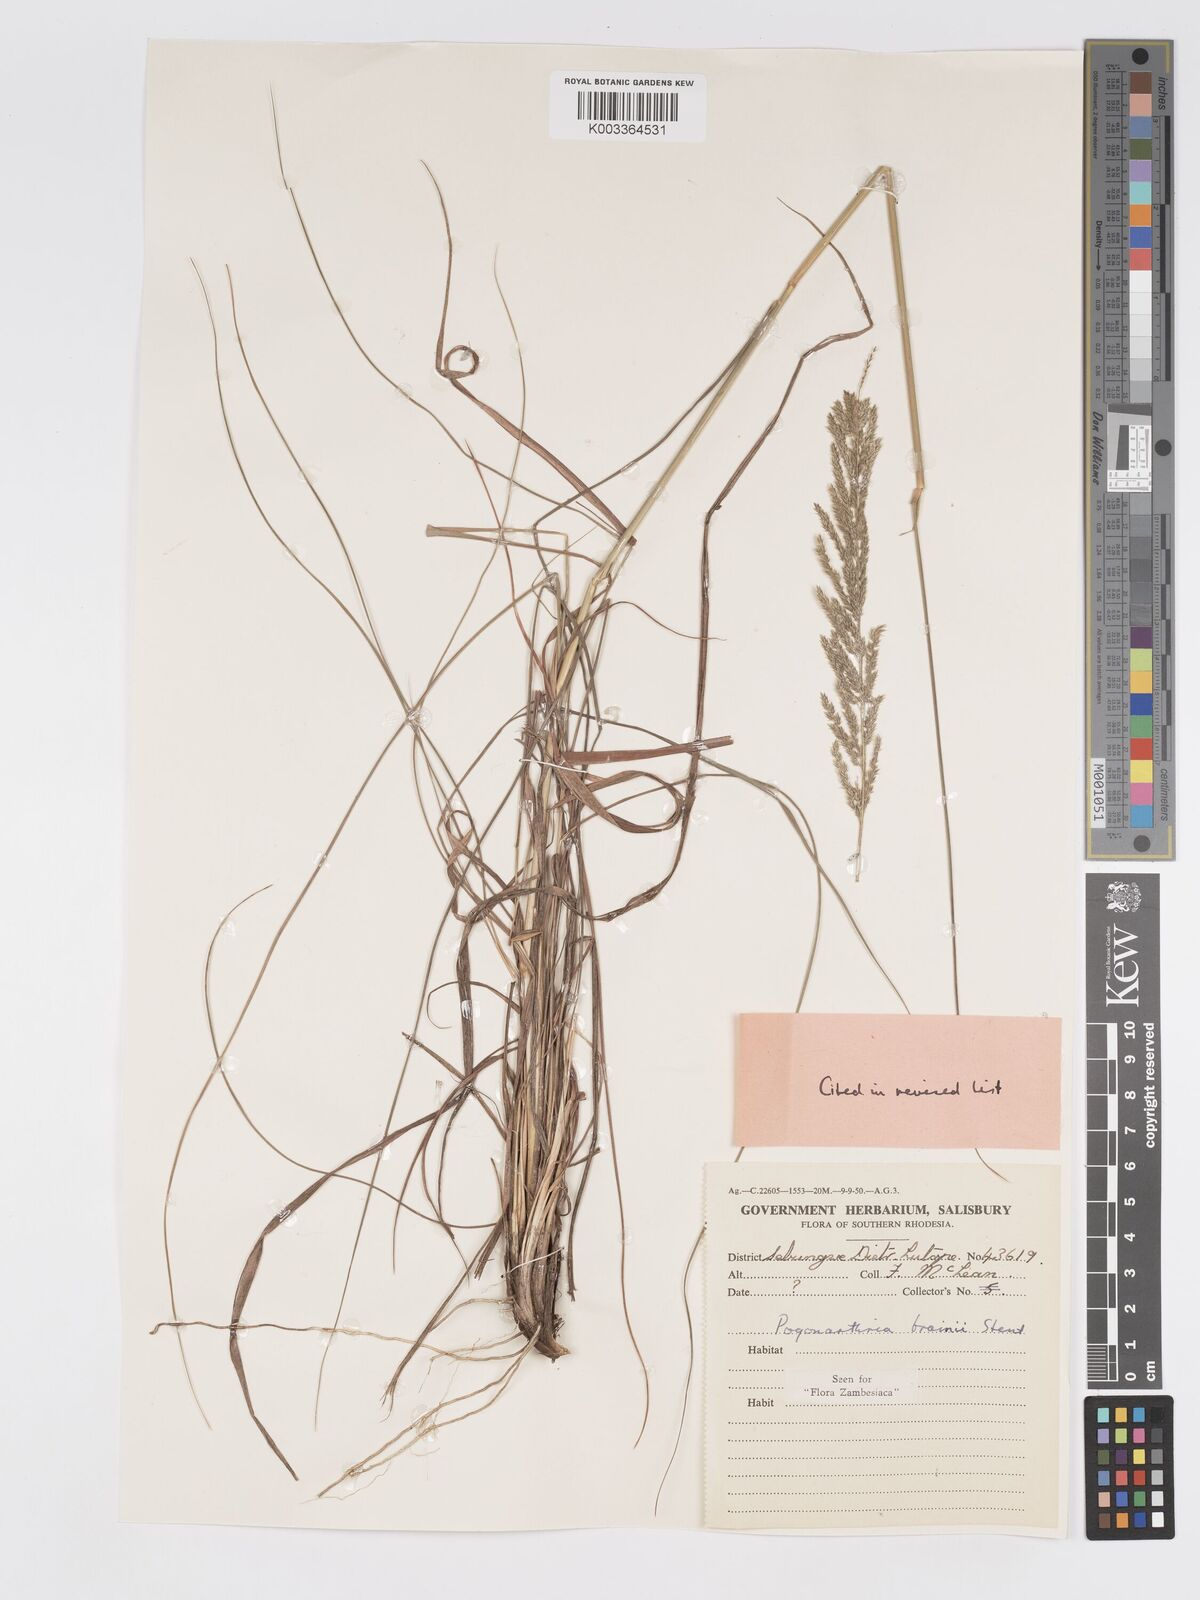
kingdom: Plantae
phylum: Tracheophyta
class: Liliopsida
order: Poales
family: Poaceae
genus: Eragrostis
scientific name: Eragrostis brainii
